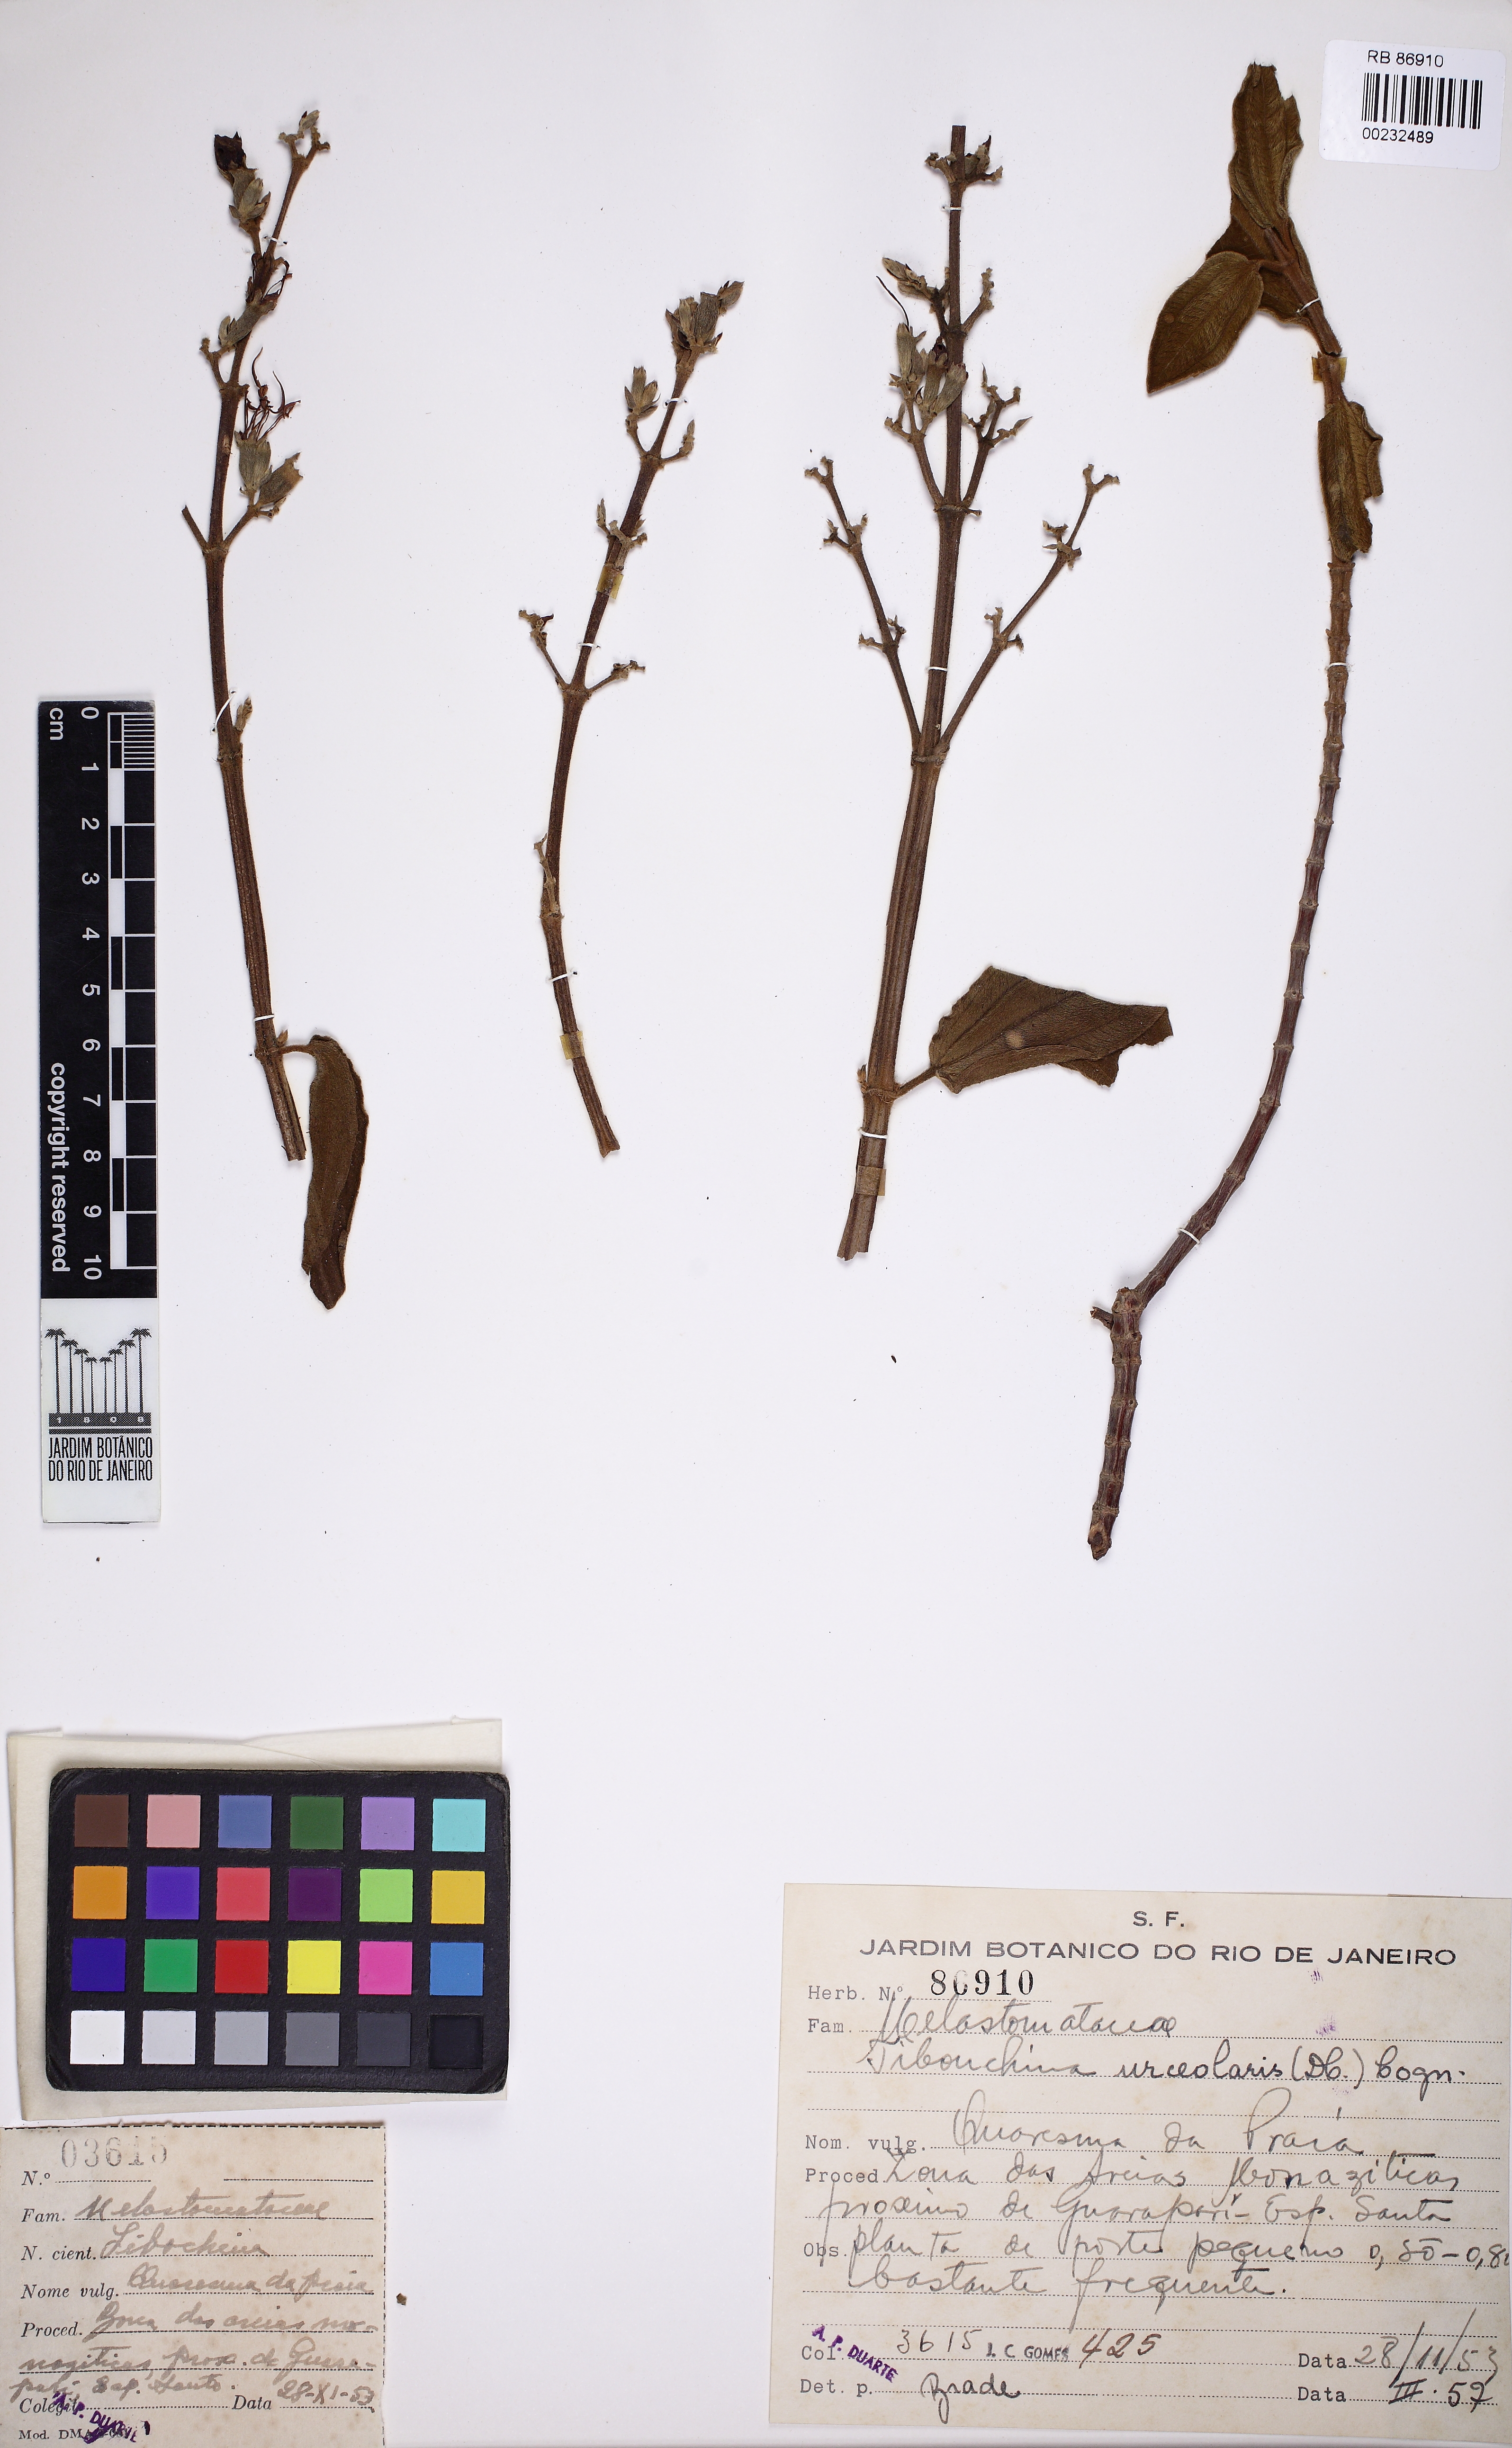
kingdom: Plantae
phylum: Tracheophyta
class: Magnoliopsida
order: Myrtales
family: Melastomataceae
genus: Pleroma
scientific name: Pleroma urceolare
